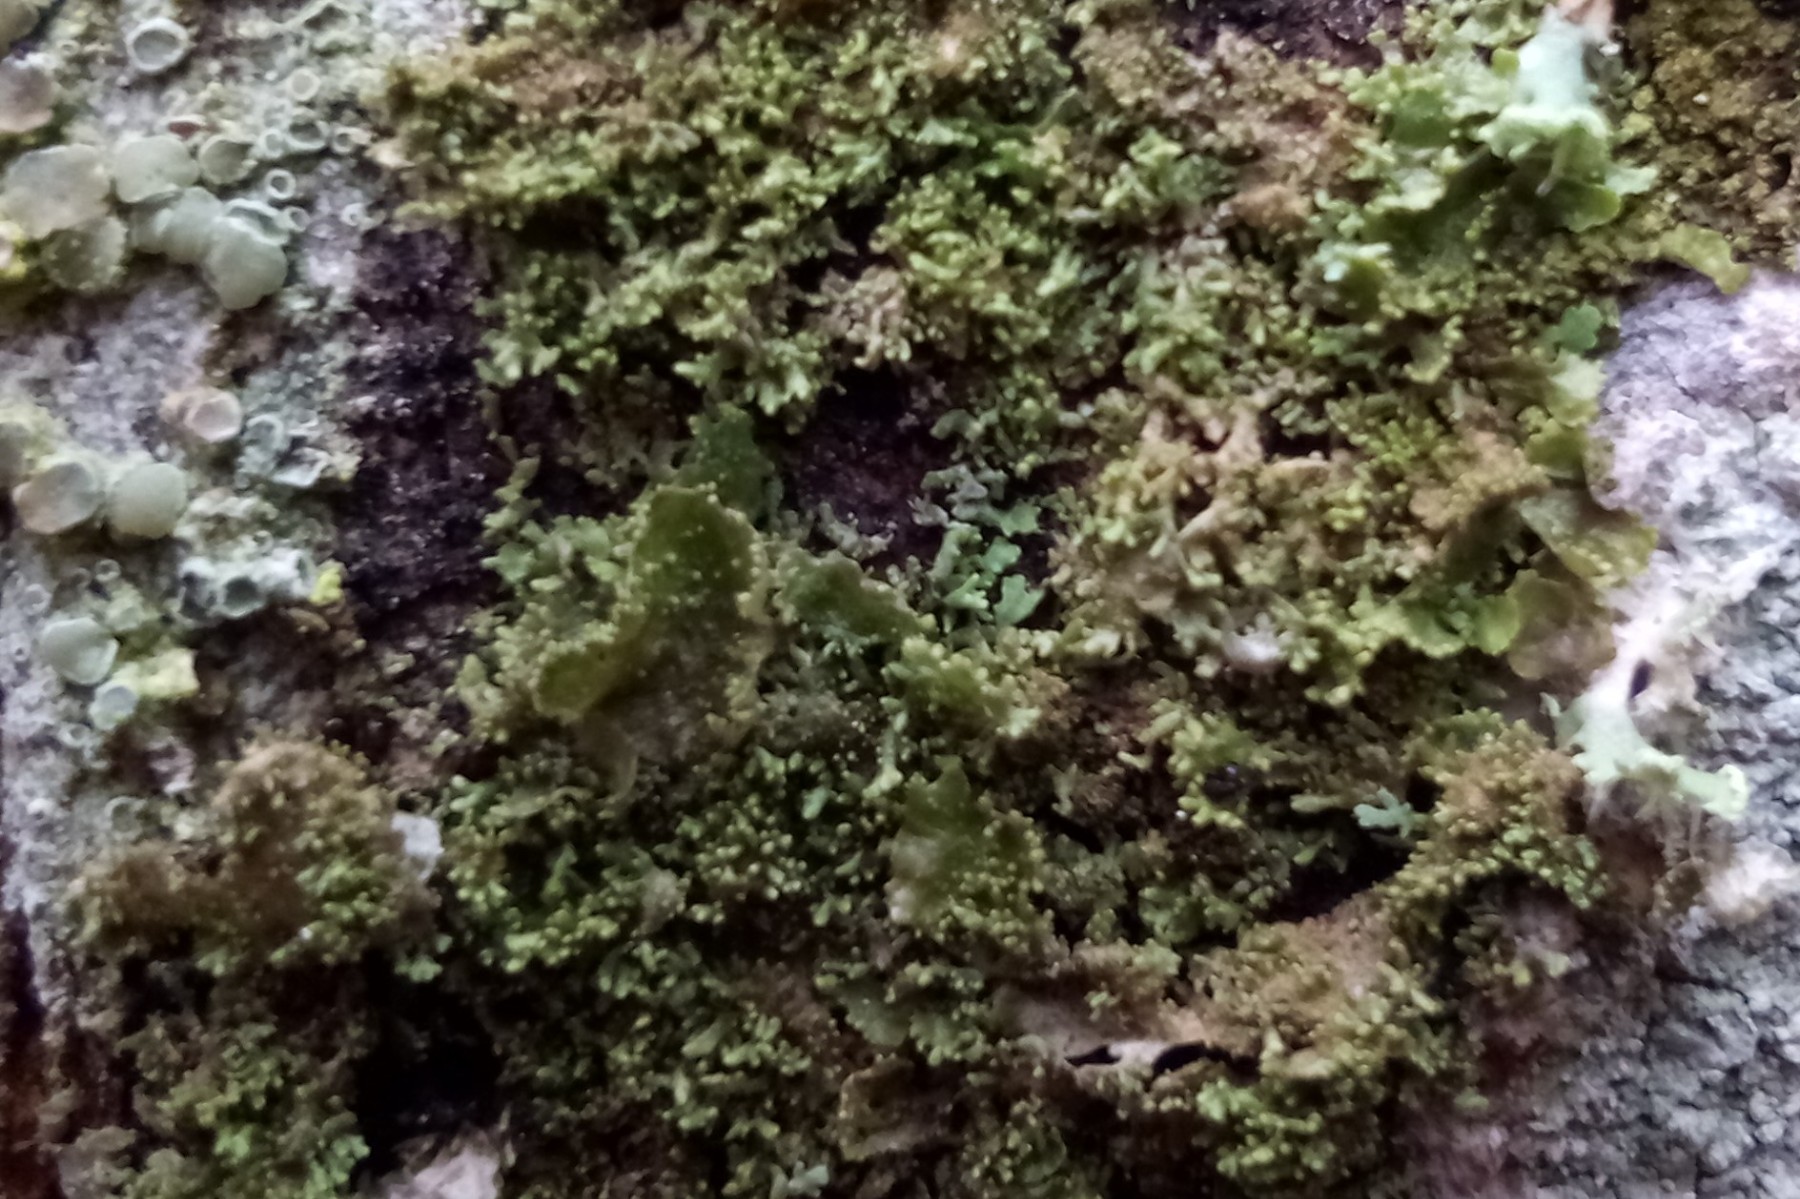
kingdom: Fungi
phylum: Ascomycota
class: Lecanoromycetes
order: Lecanorales
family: Parmeliaceae
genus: Melanohalea
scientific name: Melanohalea exasperatula
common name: kølle-skållav
